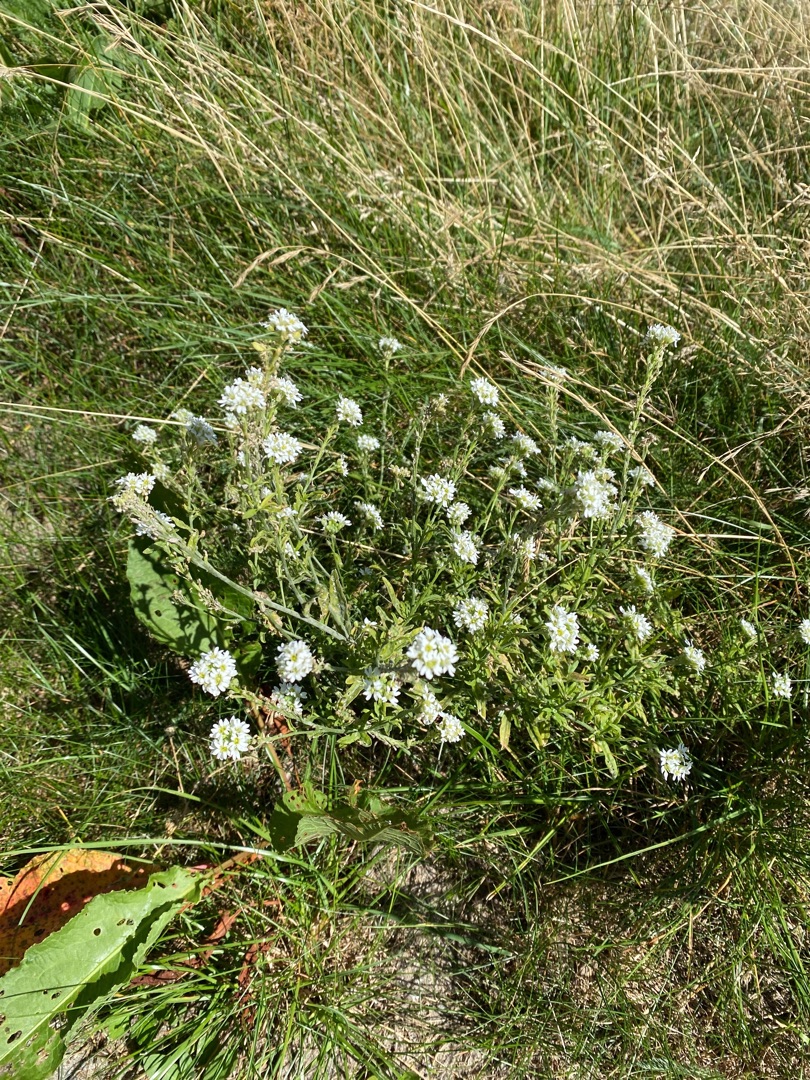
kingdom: Plantae
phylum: Tracheophyta
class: Magnoliopsida
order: Brassicales
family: Brassicaceae
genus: Berteroa
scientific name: Berteroa incana
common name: Kløvplade
